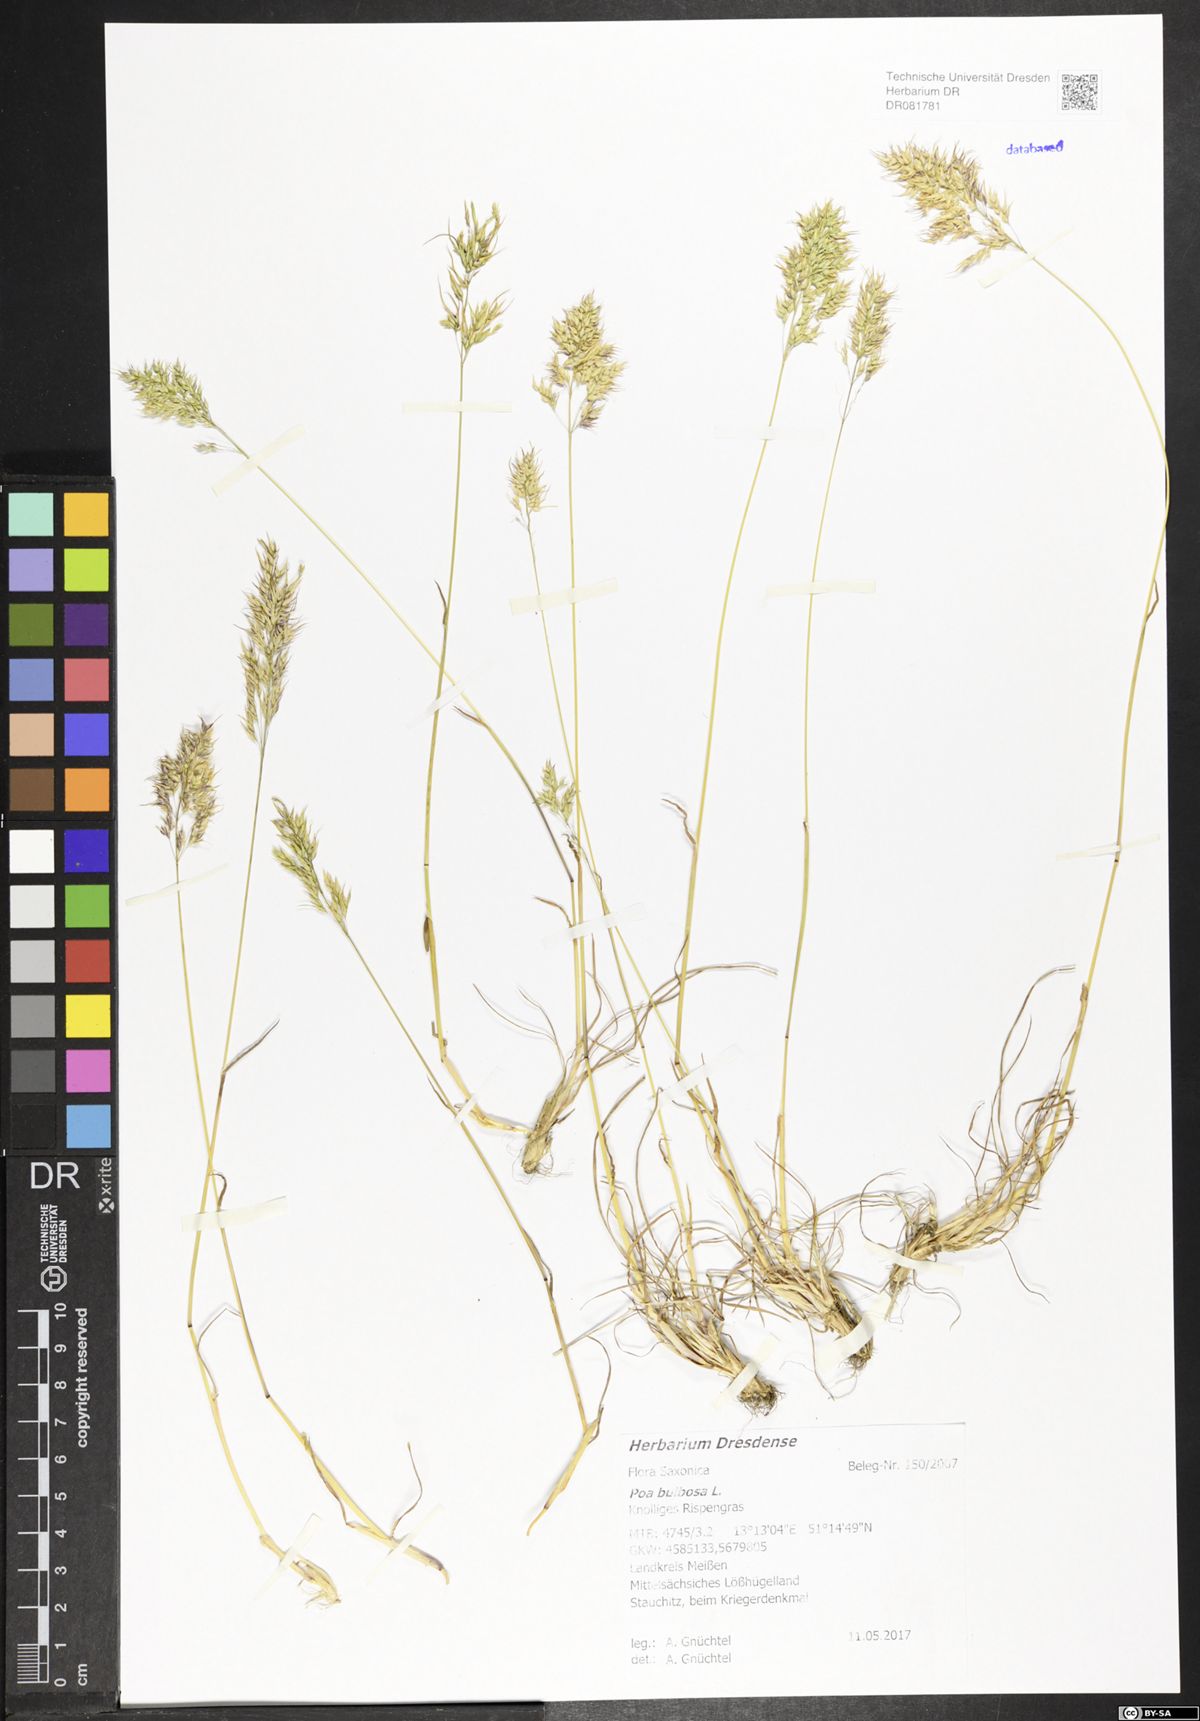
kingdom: Plantae
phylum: Tracheophyta
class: Liliopsida
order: Poales
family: Poaceae
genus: Poa
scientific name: Poa bulbosa
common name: Bulbous bluegrass
